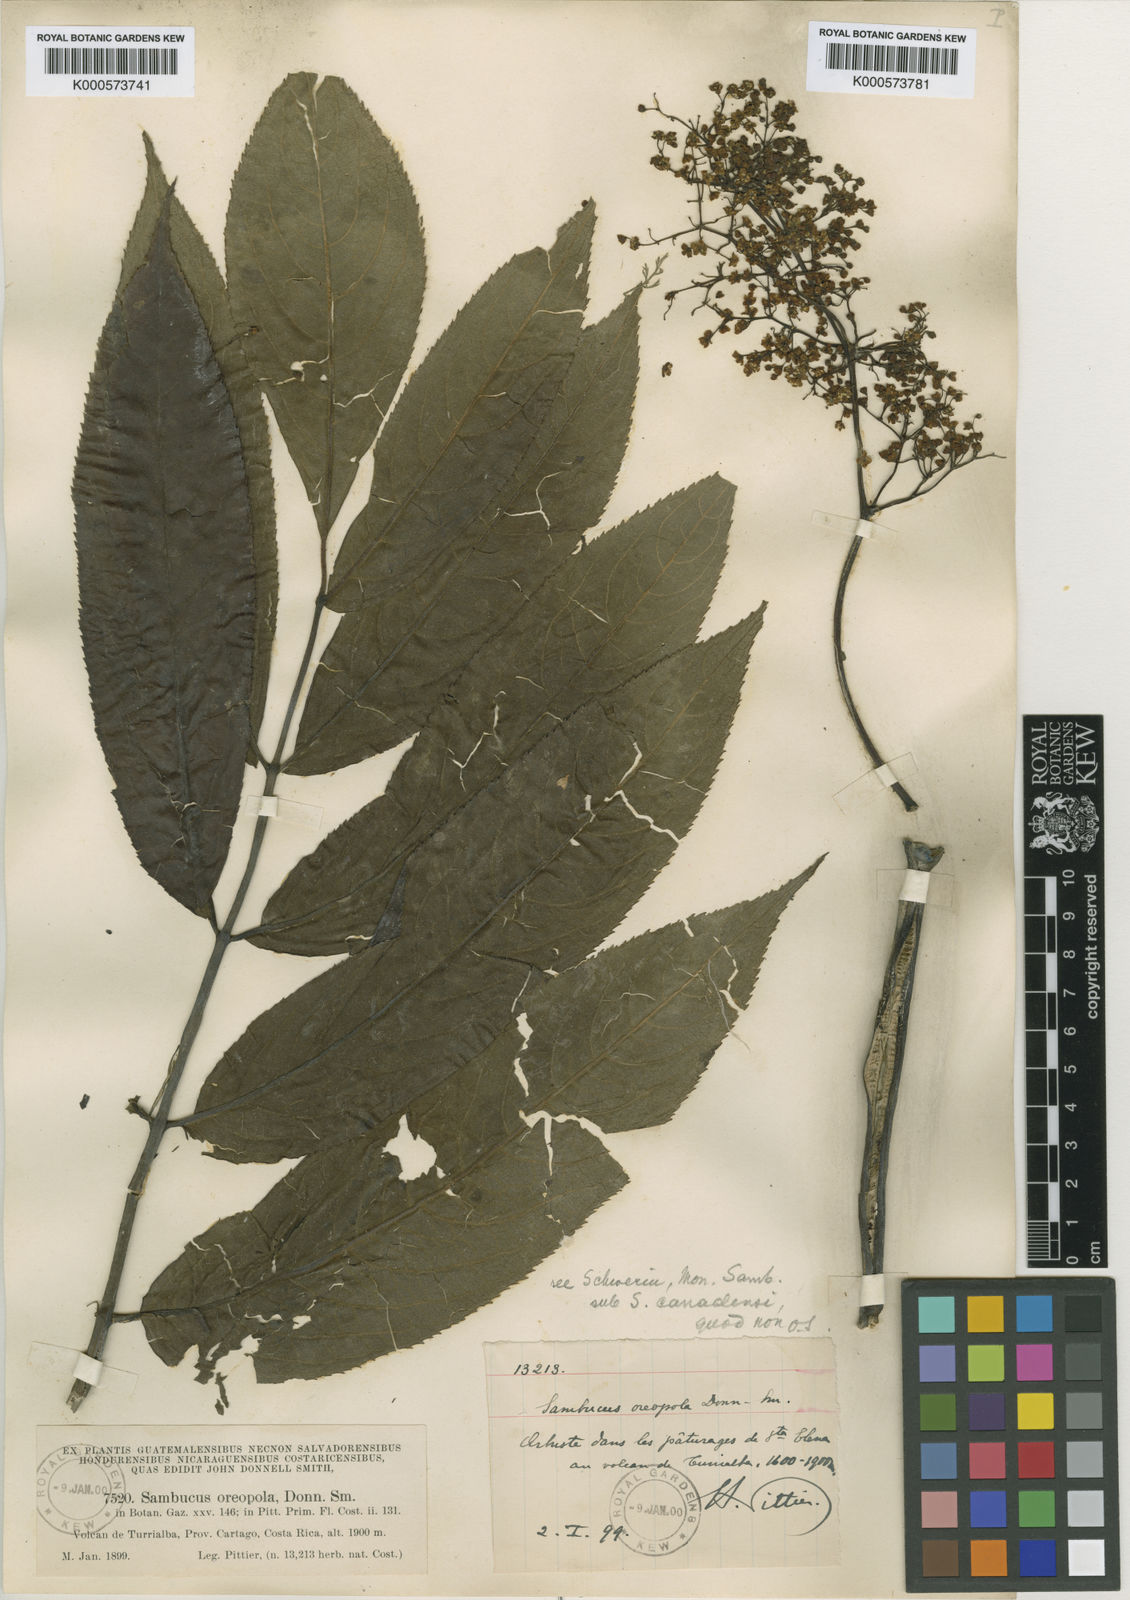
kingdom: Plantae
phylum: Tracheophyta
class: Magnoliopsida
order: Dipsacales
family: Viburnaceae
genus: Sambucus
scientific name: Sambucus canadensis
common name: American elder
